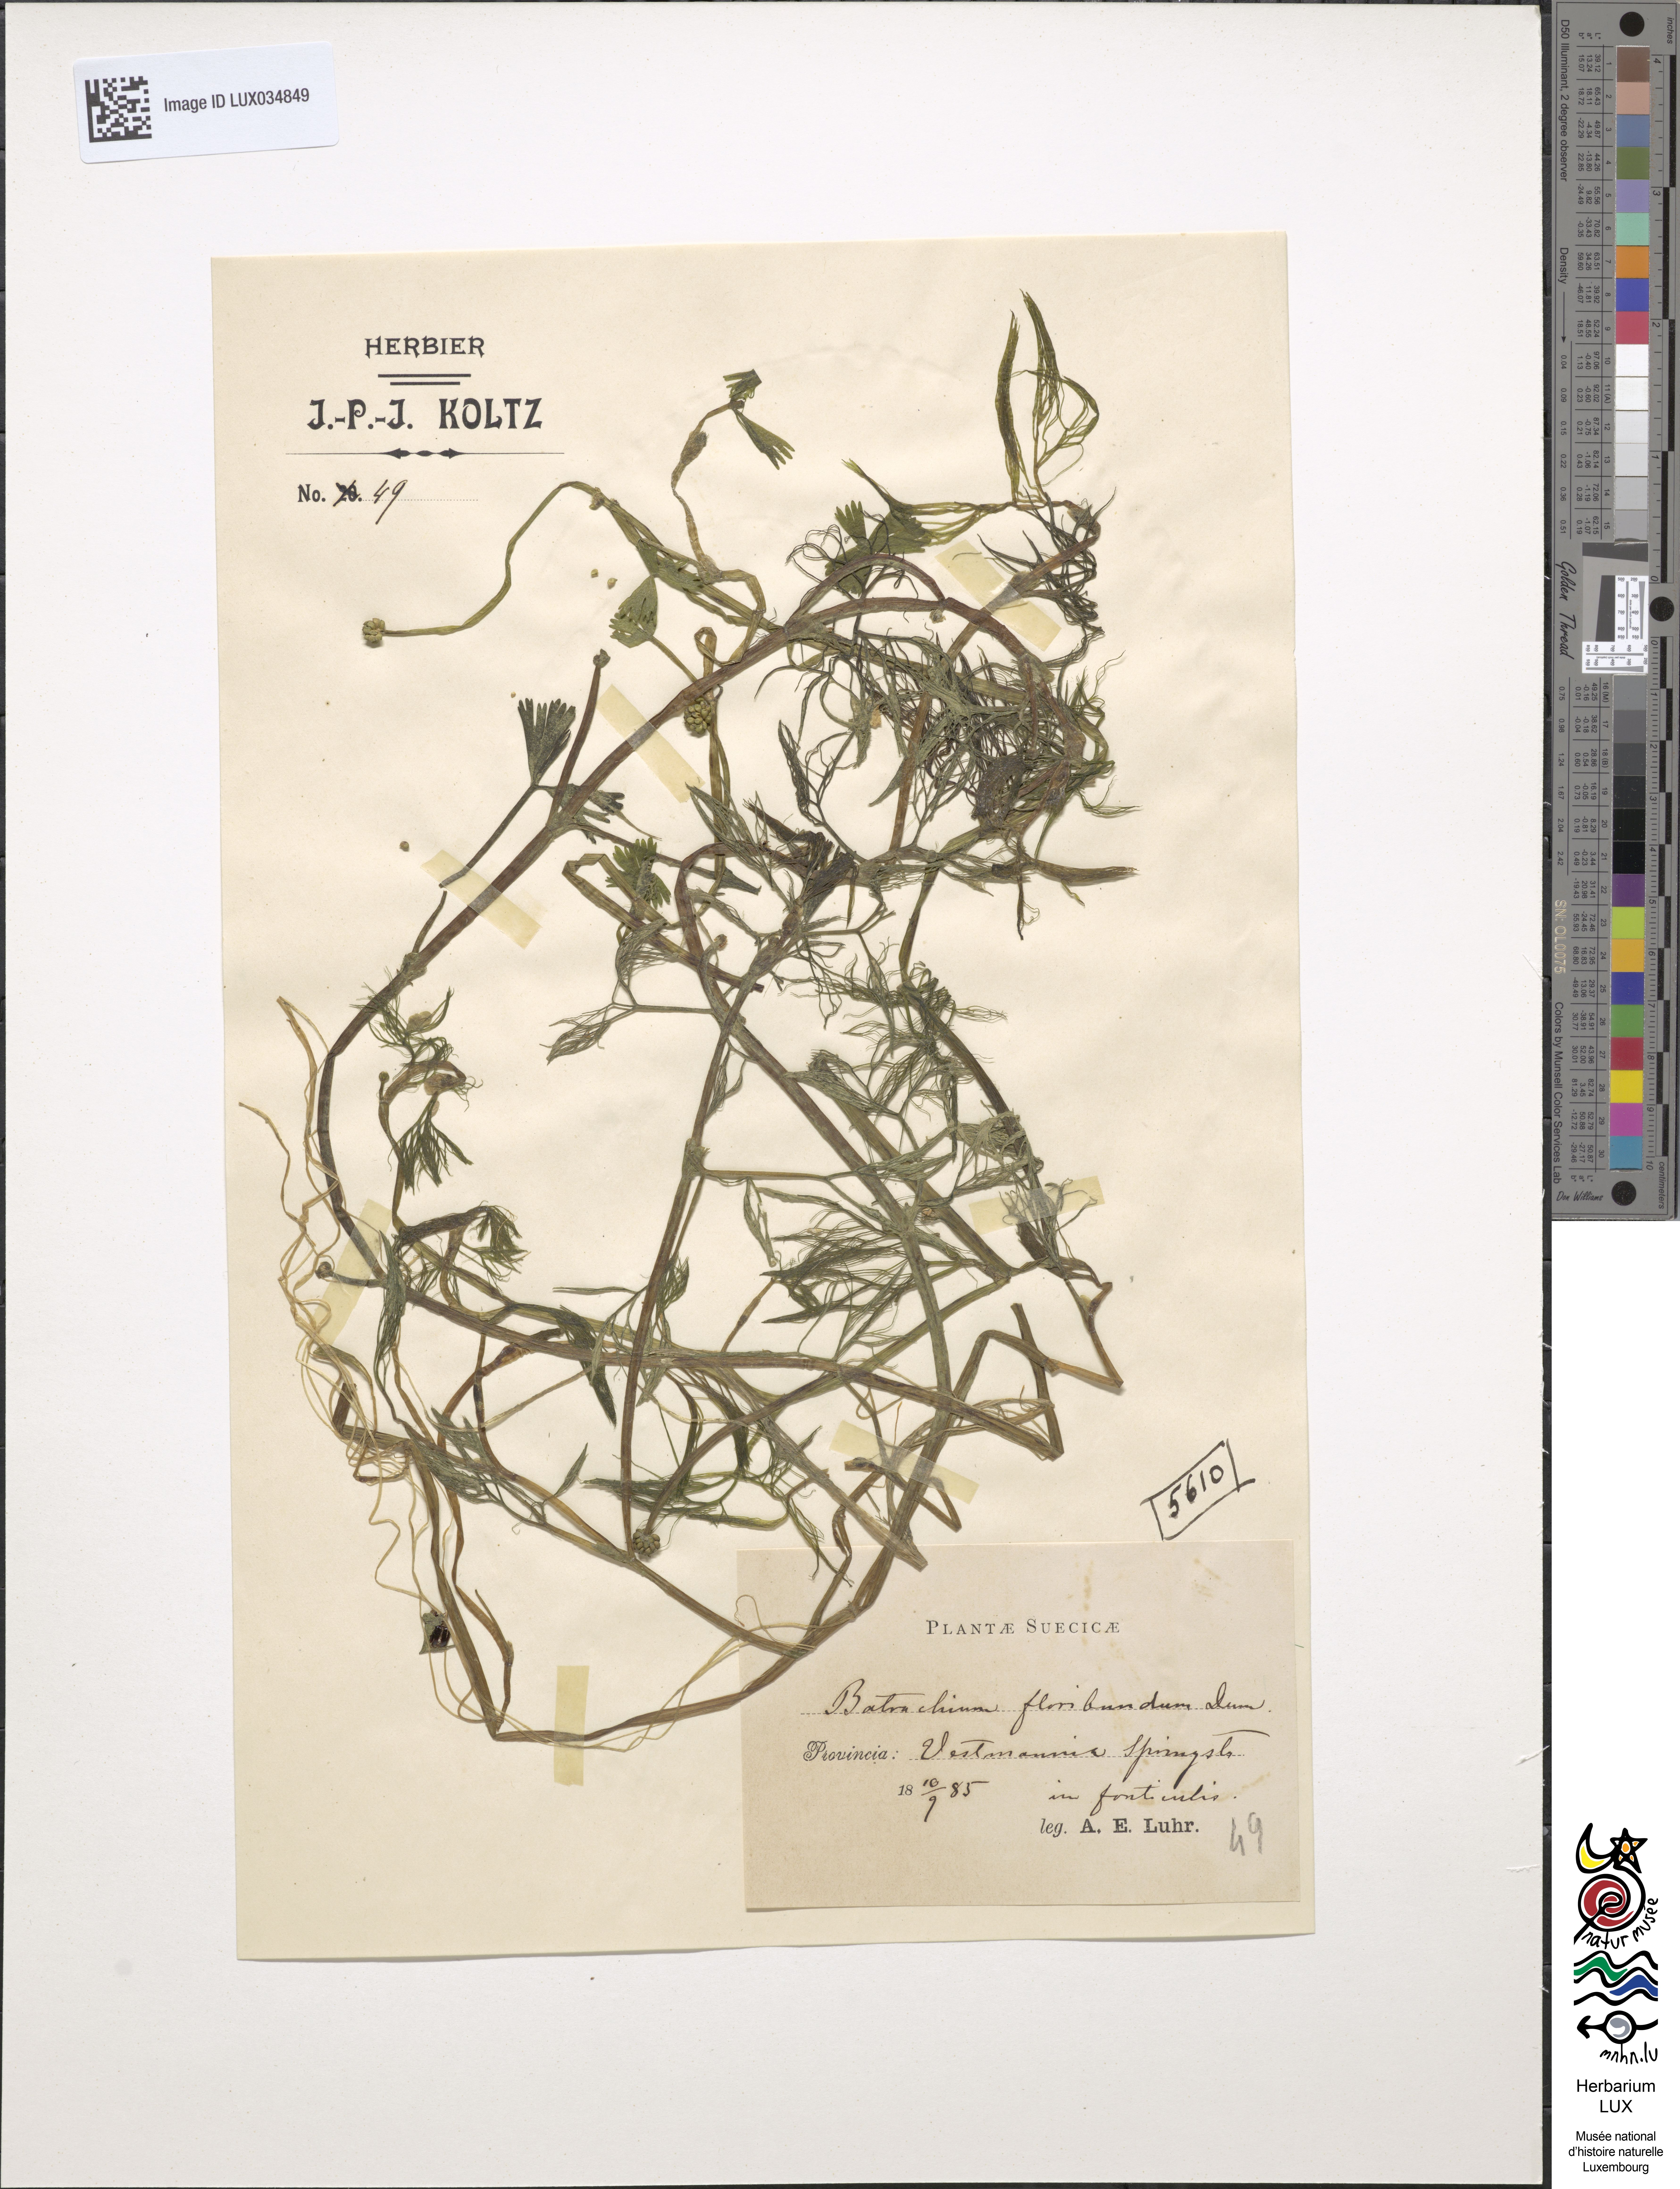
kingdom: Plantae
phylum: Tracheophyta
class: Magnoliopsida
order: Ranunculales
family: Ranunculaceae
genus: Ranunculus
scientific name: Ranunculus peltatus
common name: Pond water-crowfoot
